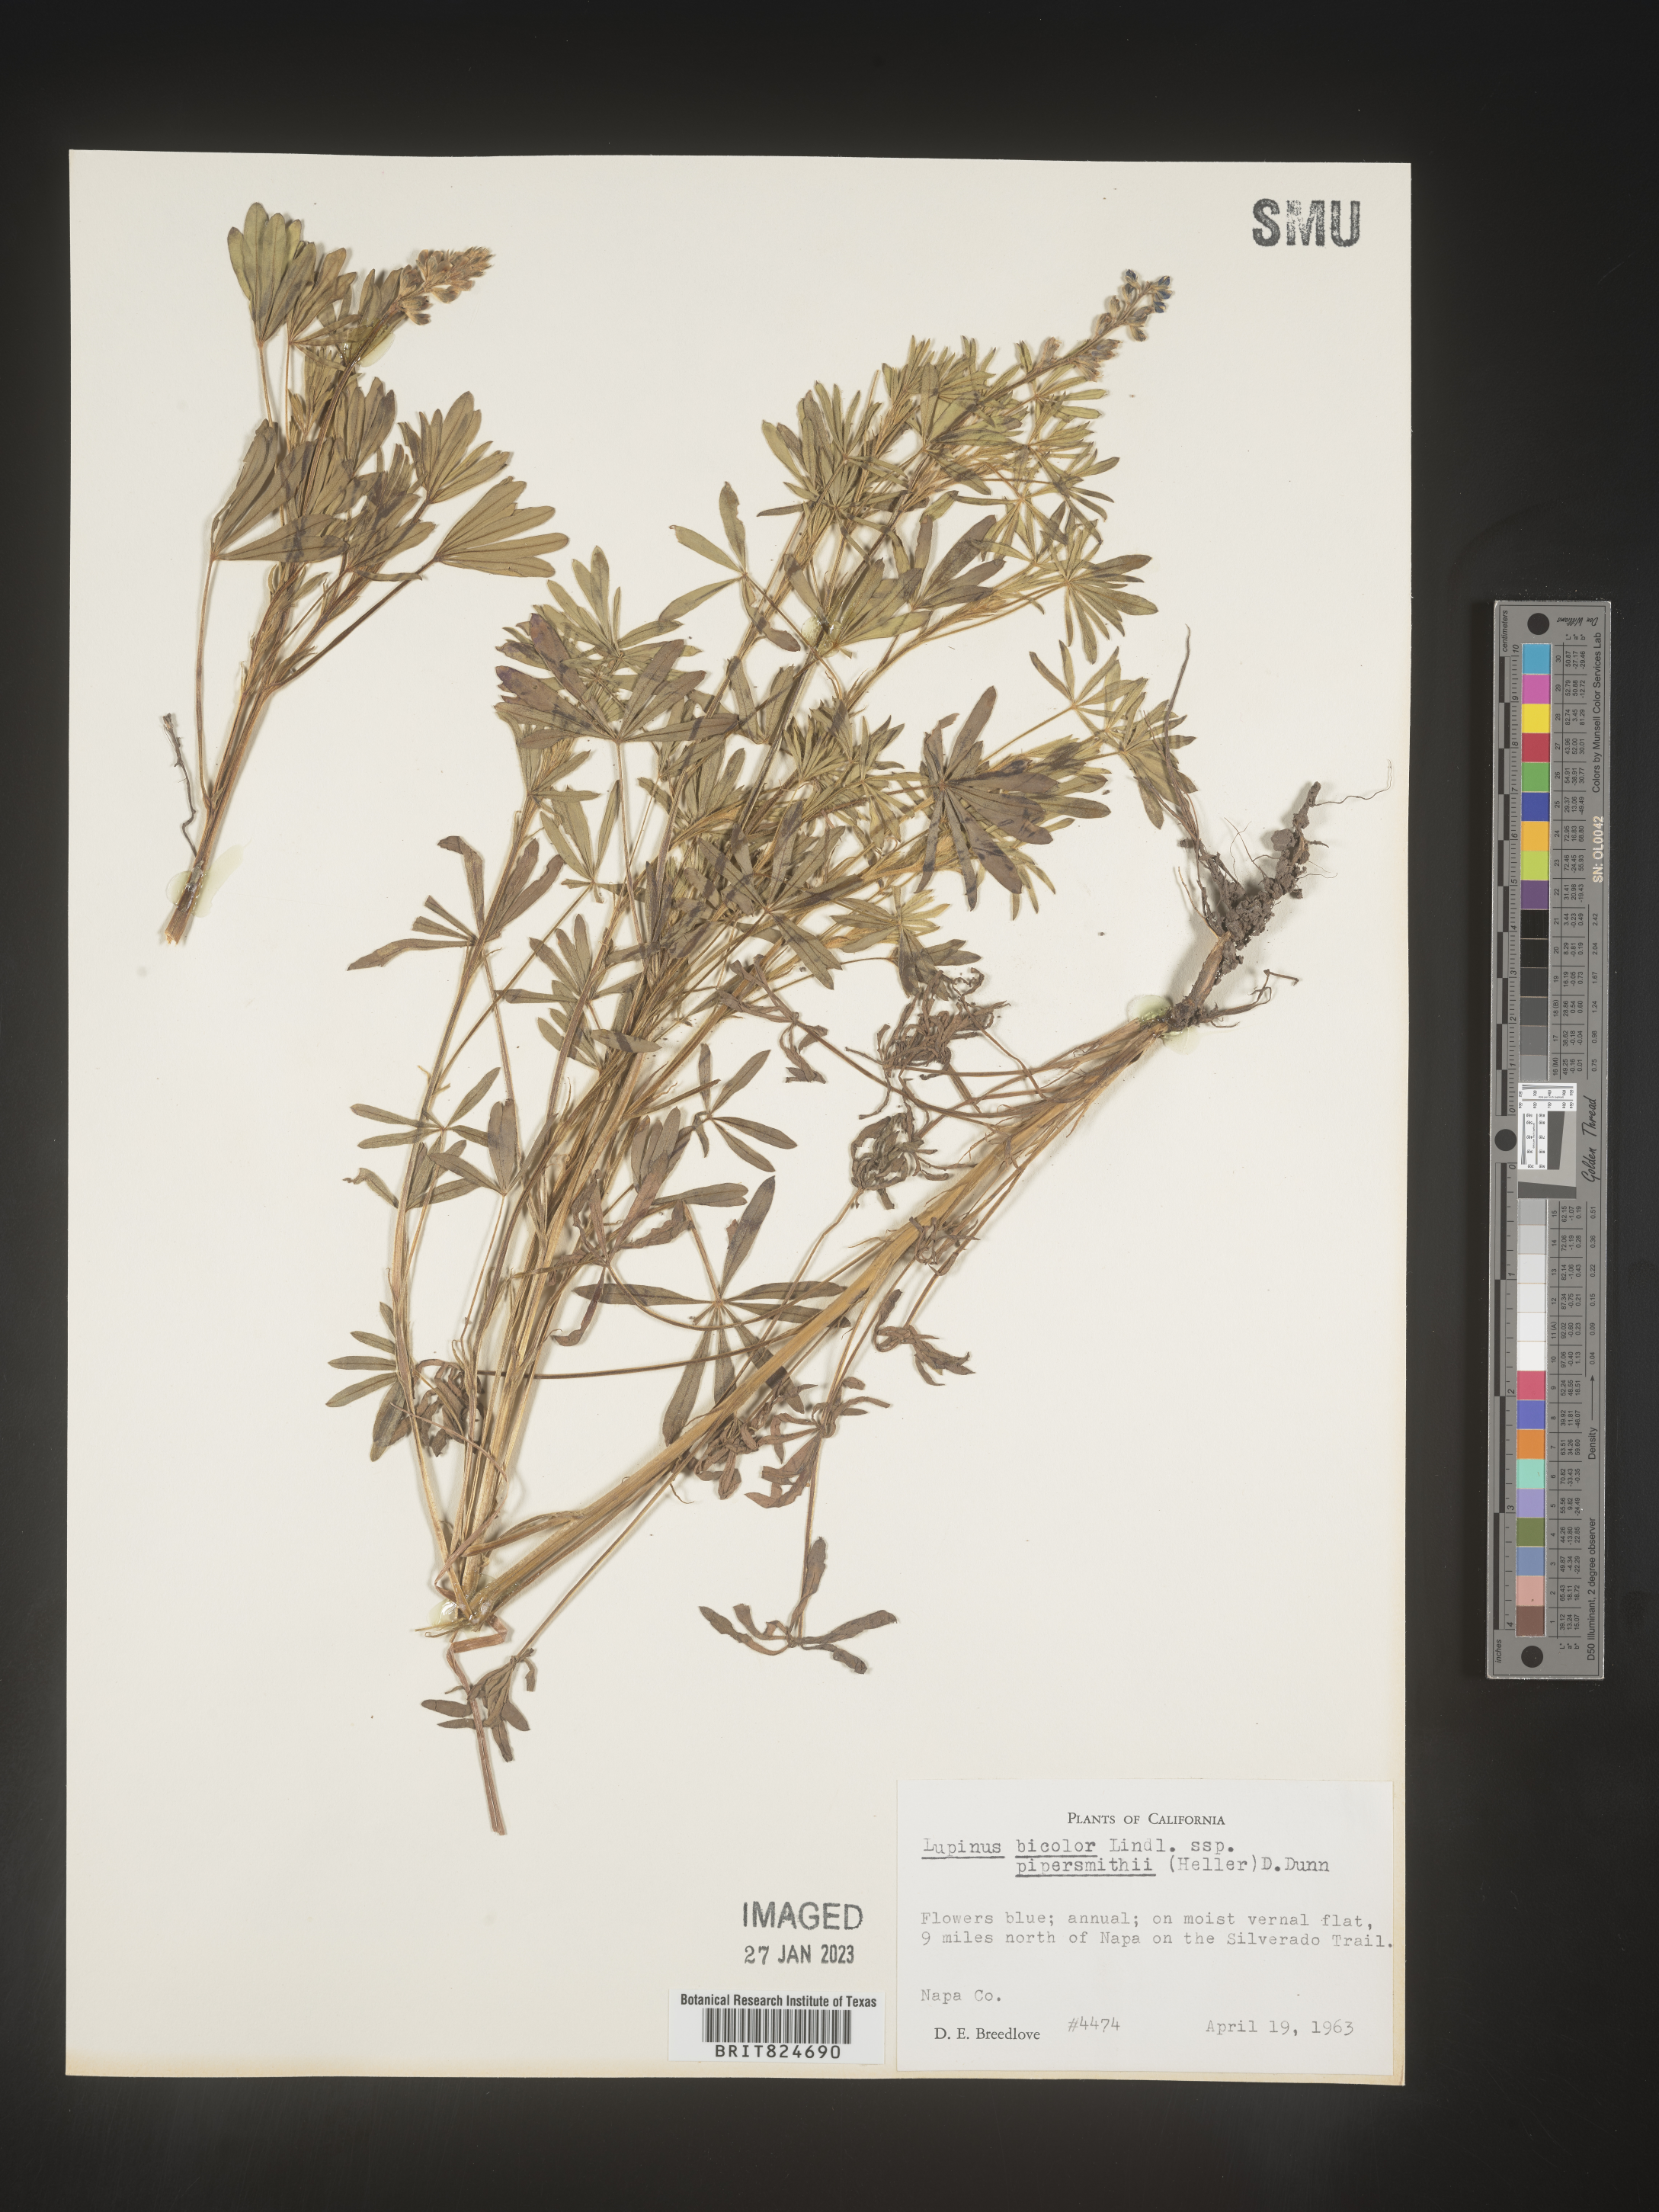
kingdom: Plantae
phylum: Tracheophyta
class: Magnoliopsida
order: Fabales
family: Fabaceae
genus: Lupinus
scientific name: Lupinus bicolor
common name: Miniature lupine
